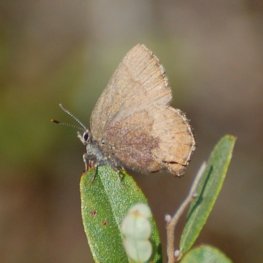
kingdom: Animalia
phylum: Arthropoda
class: Insecta
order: Lepidoptera
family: Lycaenidae
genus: Incisalia
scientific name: Incisalia irioides
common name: Brown Elfin
